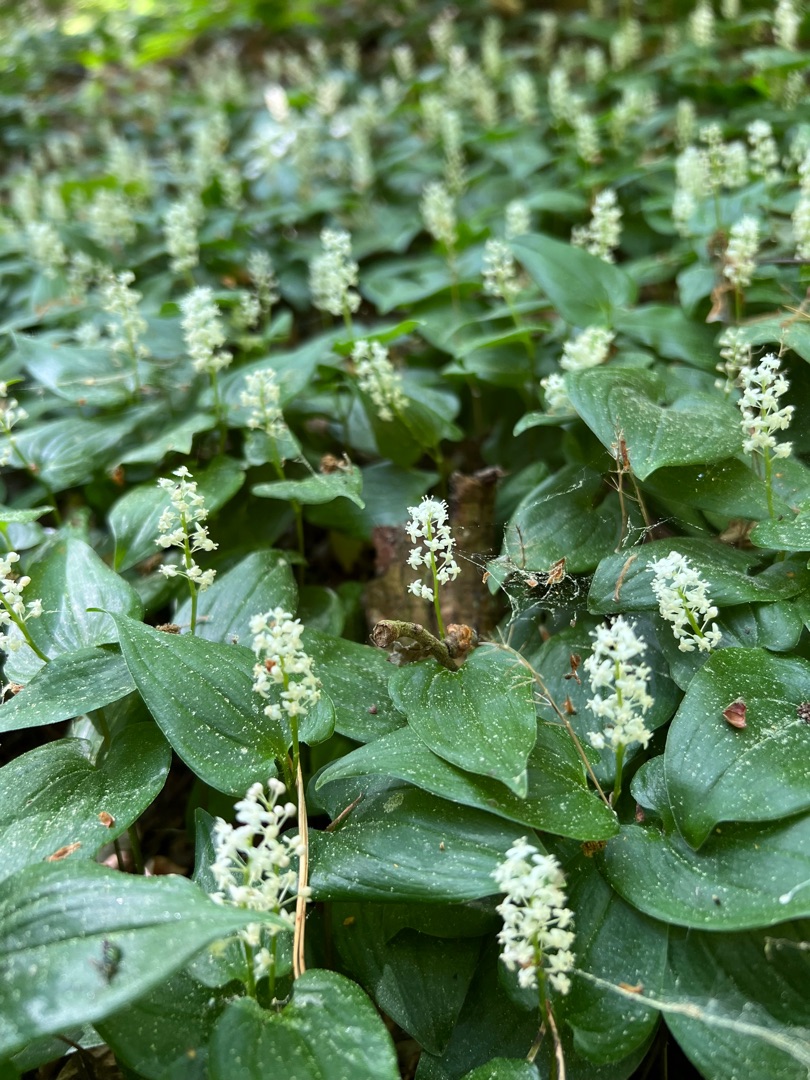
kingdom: Plantae
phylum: Tracheophyta
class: Liliopsida
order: Asparagales
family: Asparagaceae
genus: Maianthemum
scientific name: Maianthemum bifolium
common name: Majblomst
